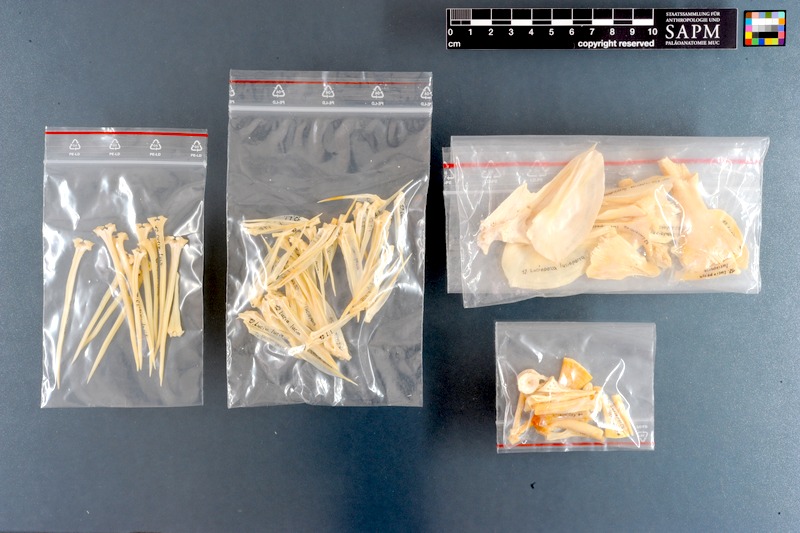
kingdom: Animalia
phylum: Chordata
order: Perciformes
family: Percidae
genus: Sander
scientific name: Sander lucioperca
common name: Pikeperch
